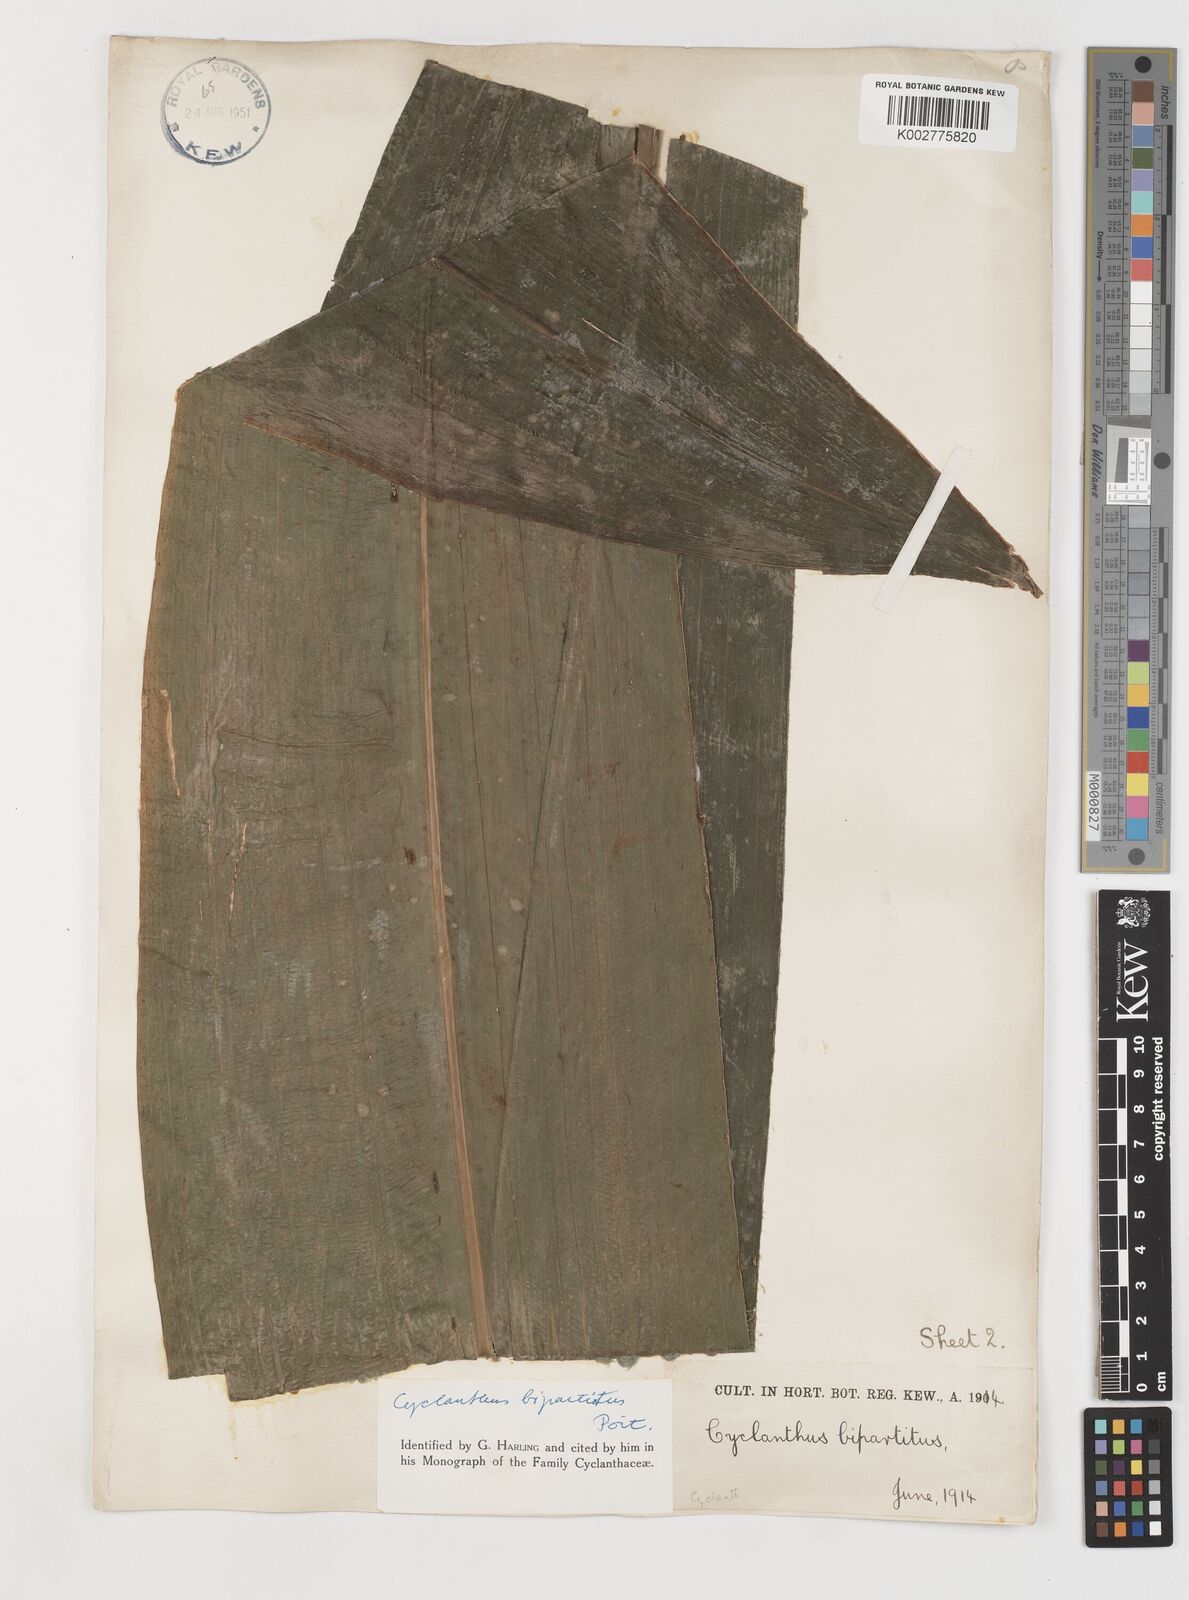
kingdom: Plantae
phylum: Tracheophyta
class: Liliopsida
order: Pandanales
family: Cyclanthaceae
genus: Cyclanthus
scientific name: Cyclanthus bipartitus
